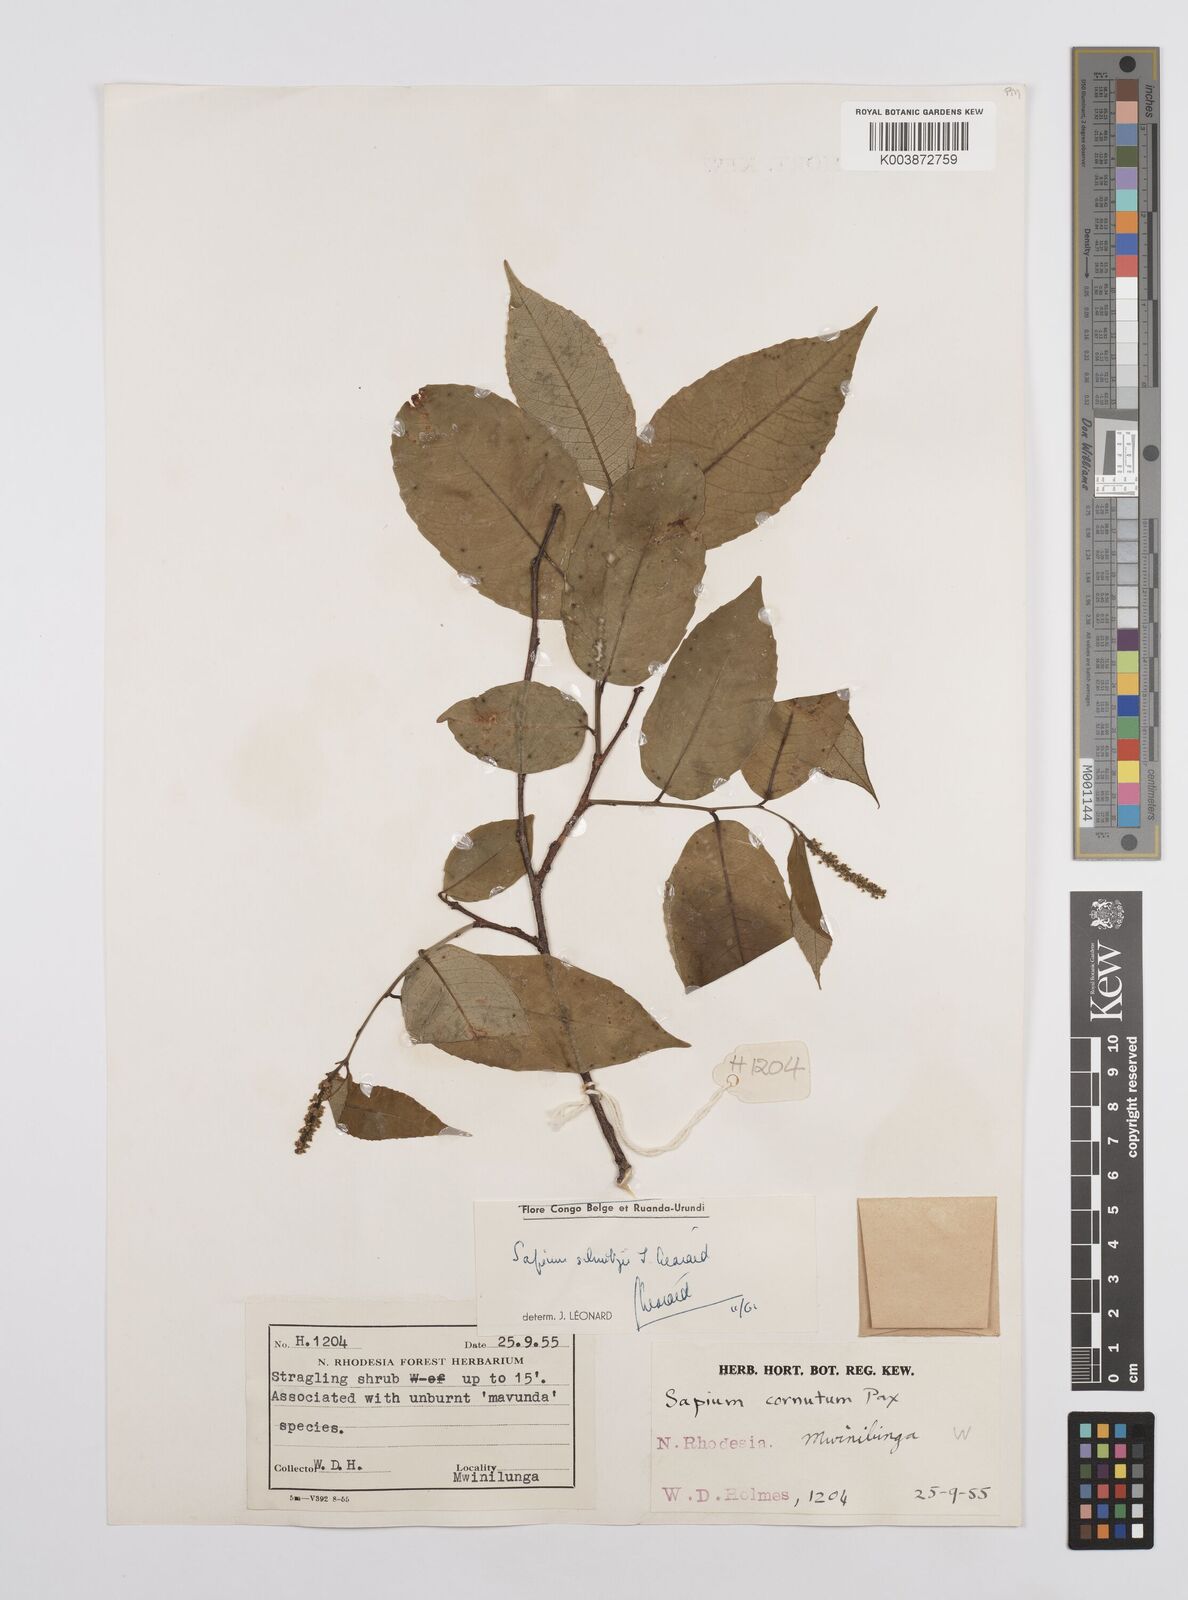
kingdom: Plantae
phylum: Tracheophyta
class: Magnoliopsida
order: Malpighiales
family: Euphorbiaceae
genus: Sclerocroton
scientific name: Sclerocroton schmitzii
